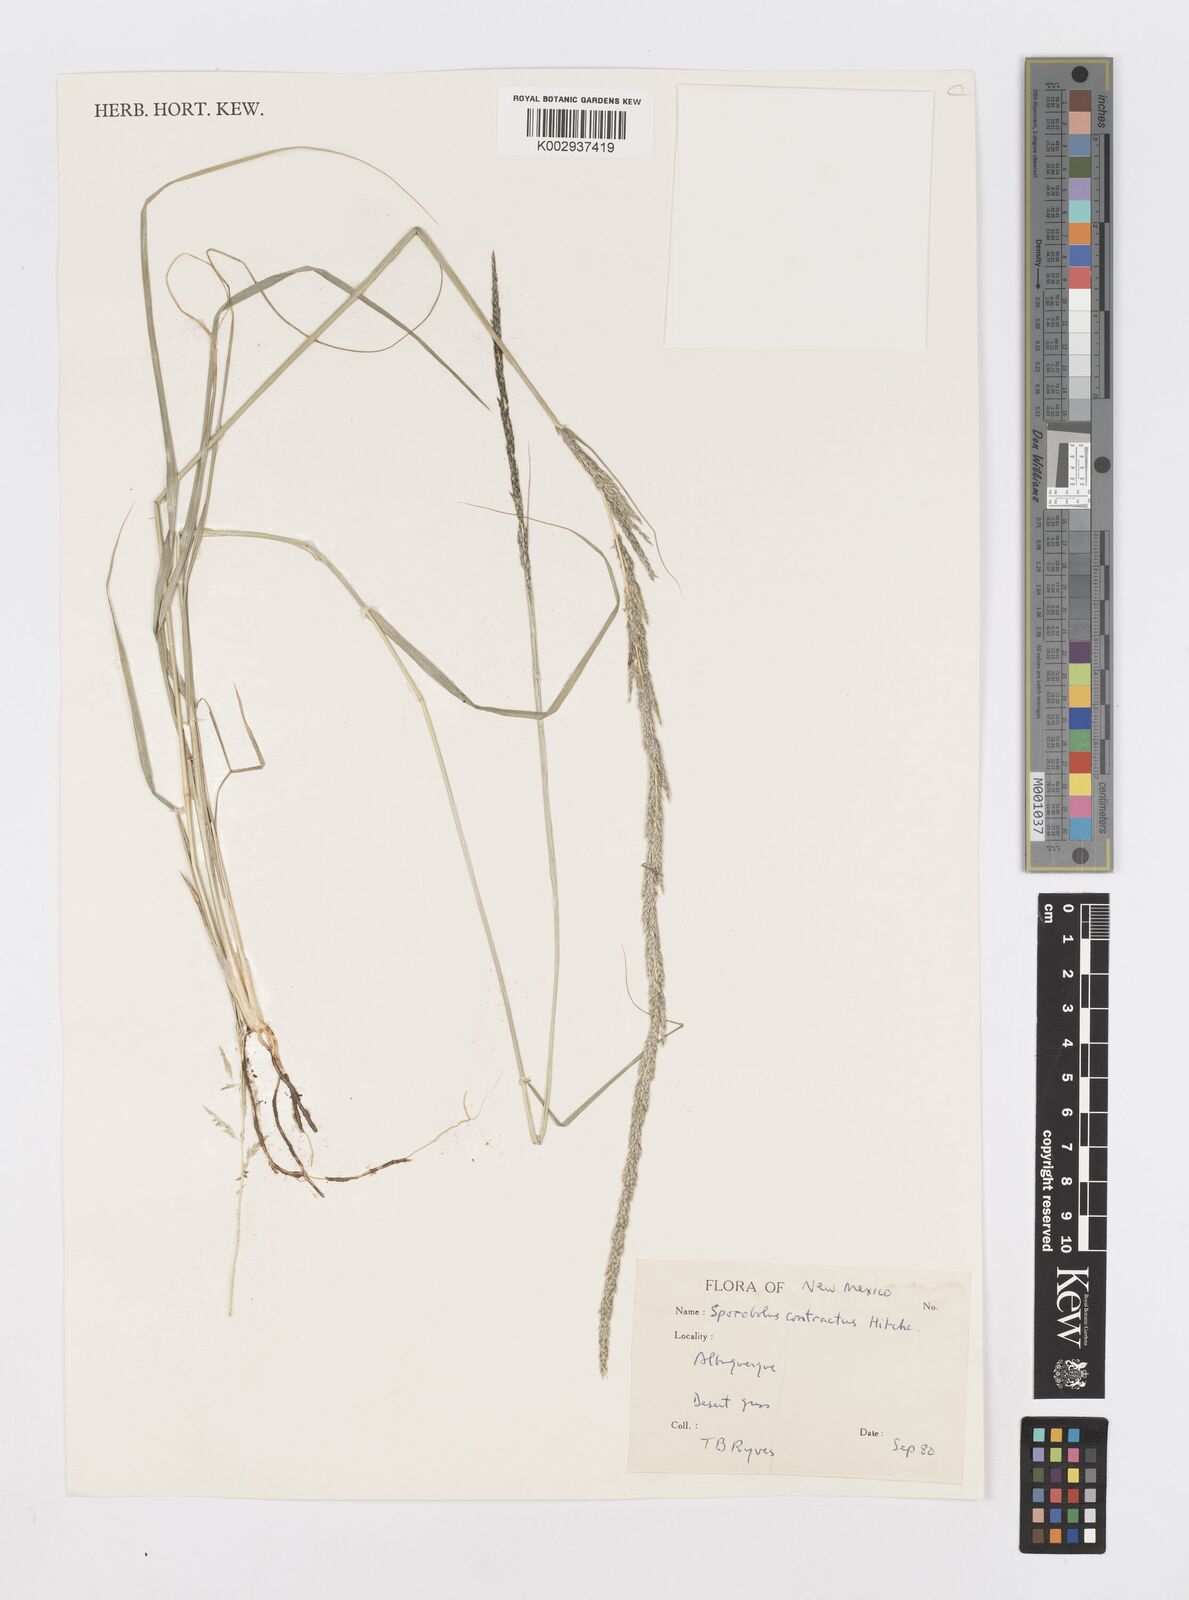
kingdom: Plantae
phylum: Tracheophyta
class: Liliopsida
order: Poales
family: Poaceae
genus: Sporobolus
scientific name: Sporobolus contractus
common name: Spike dropseed
